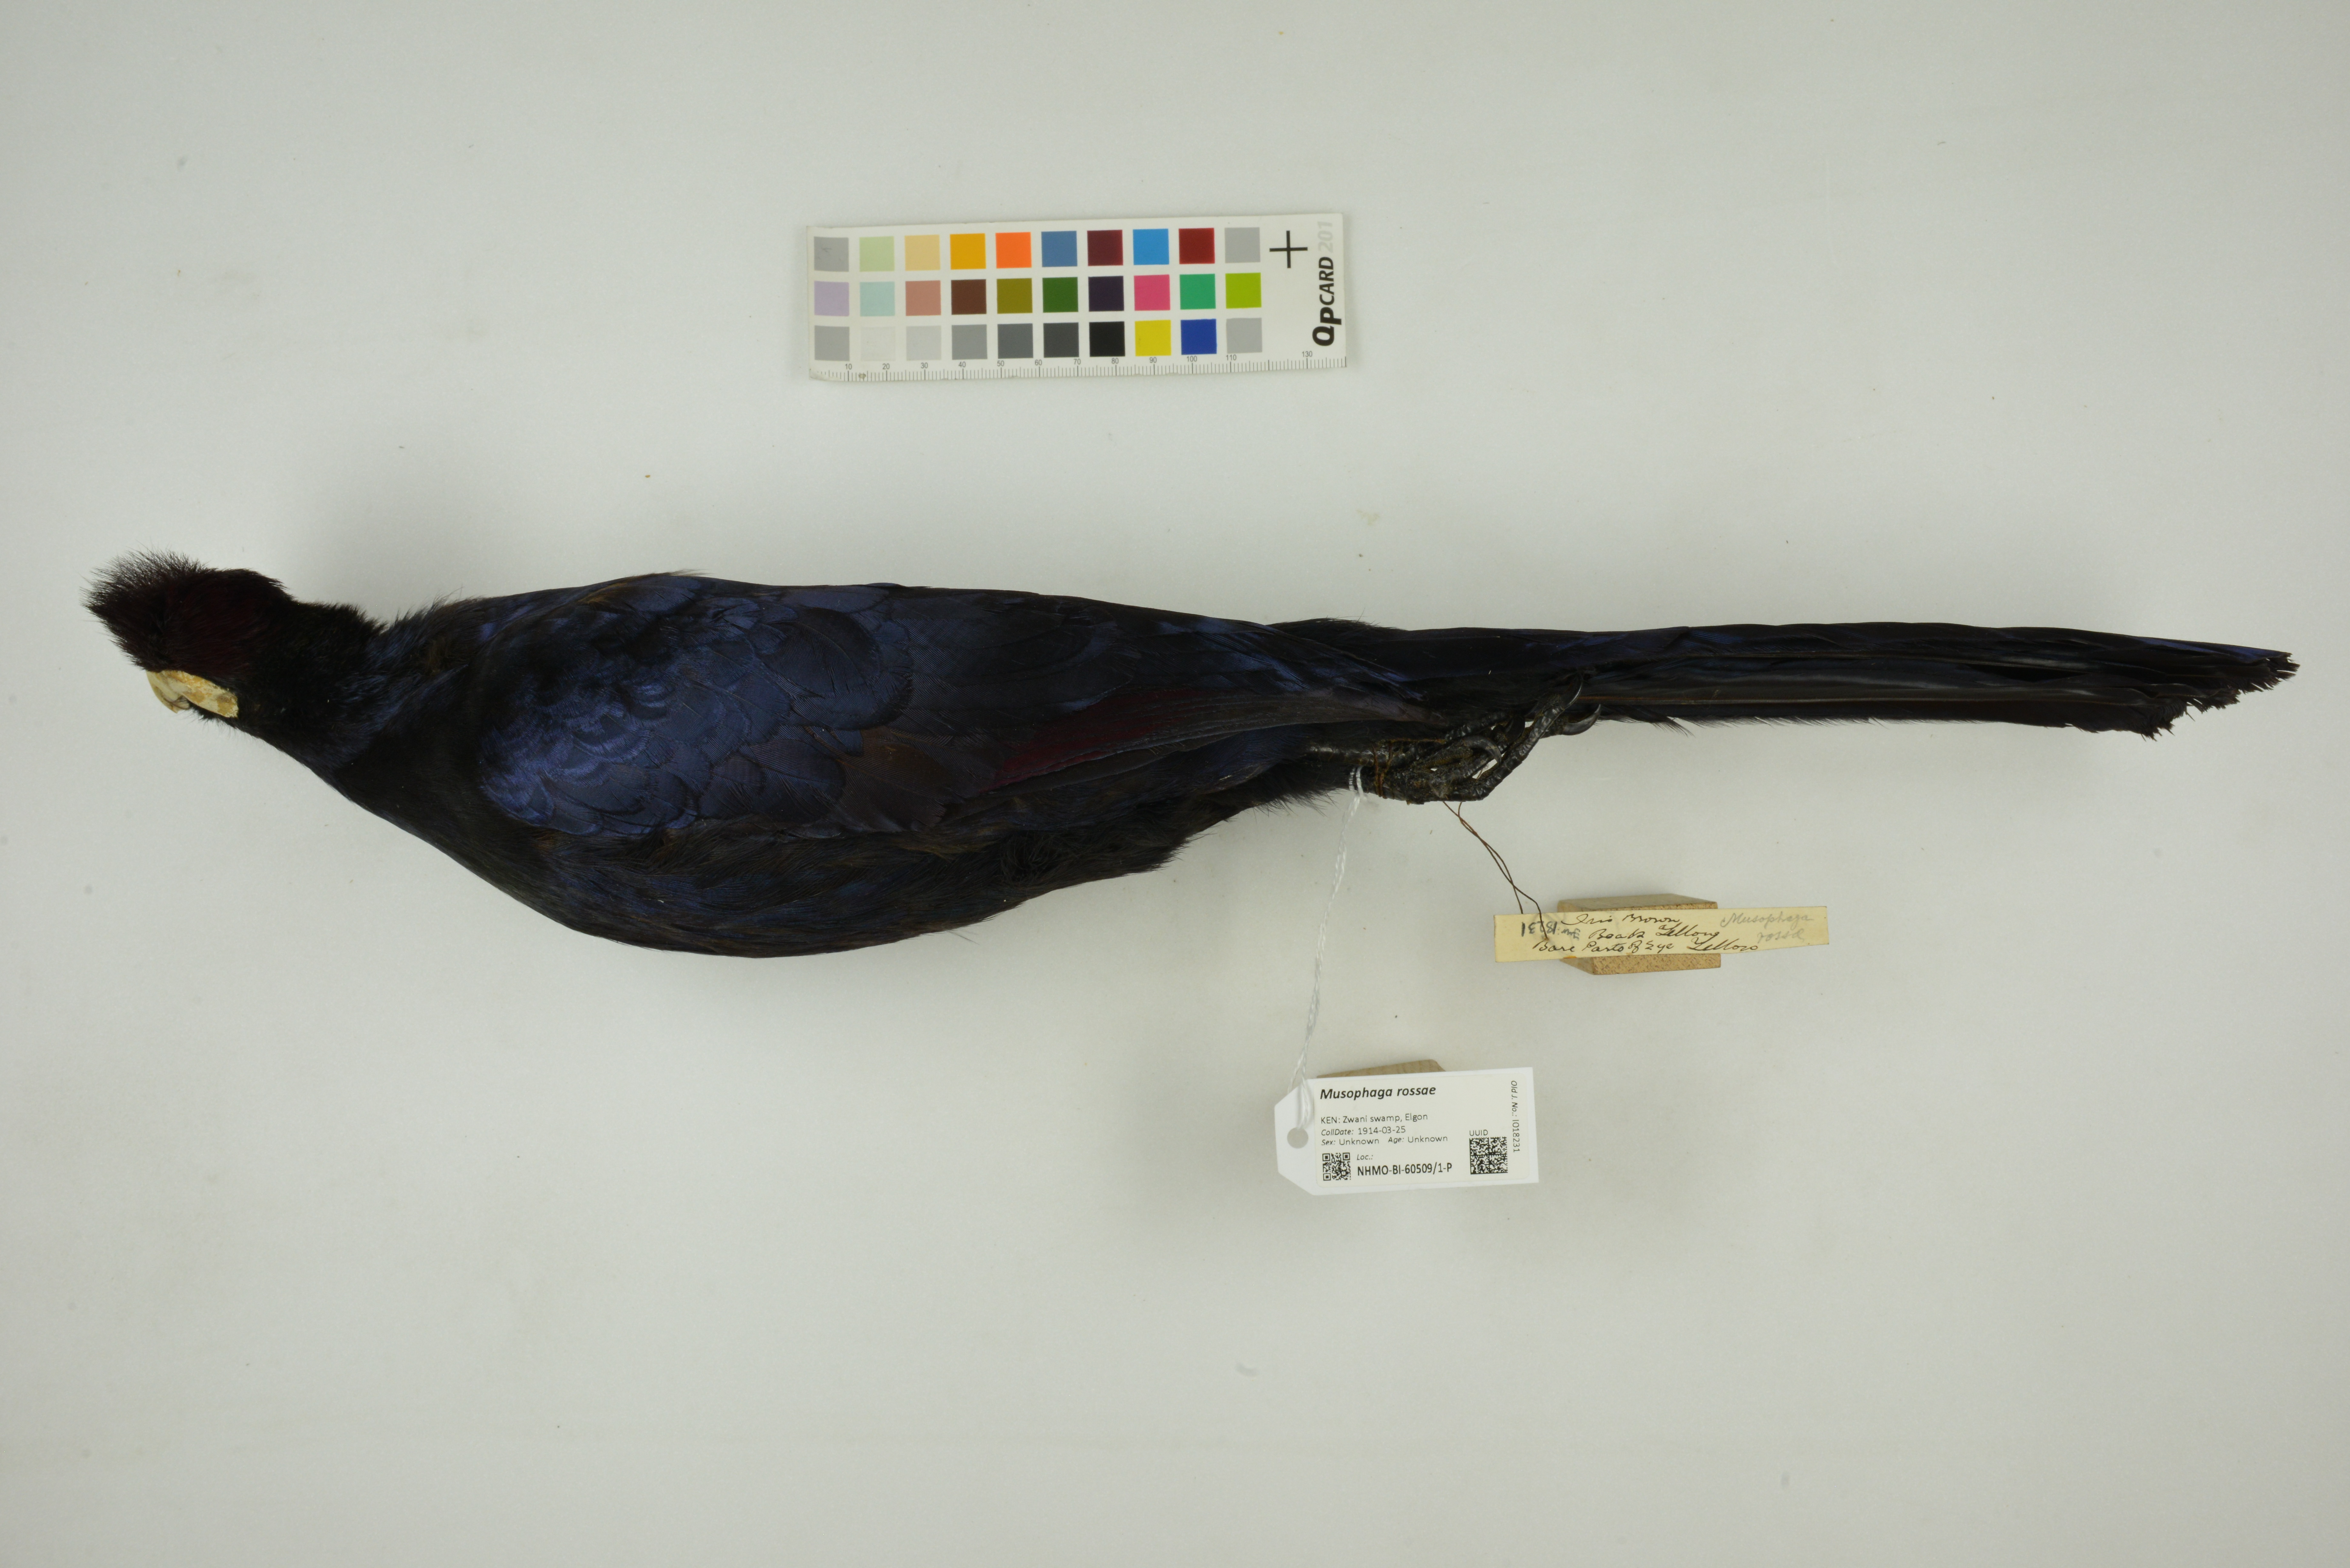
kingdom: Animalia
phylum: Chordata
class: Aves
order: Musophagiformes
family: Musophagidae
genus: Musophaga
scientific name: Musophaga rossae
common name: Ross's turaco
